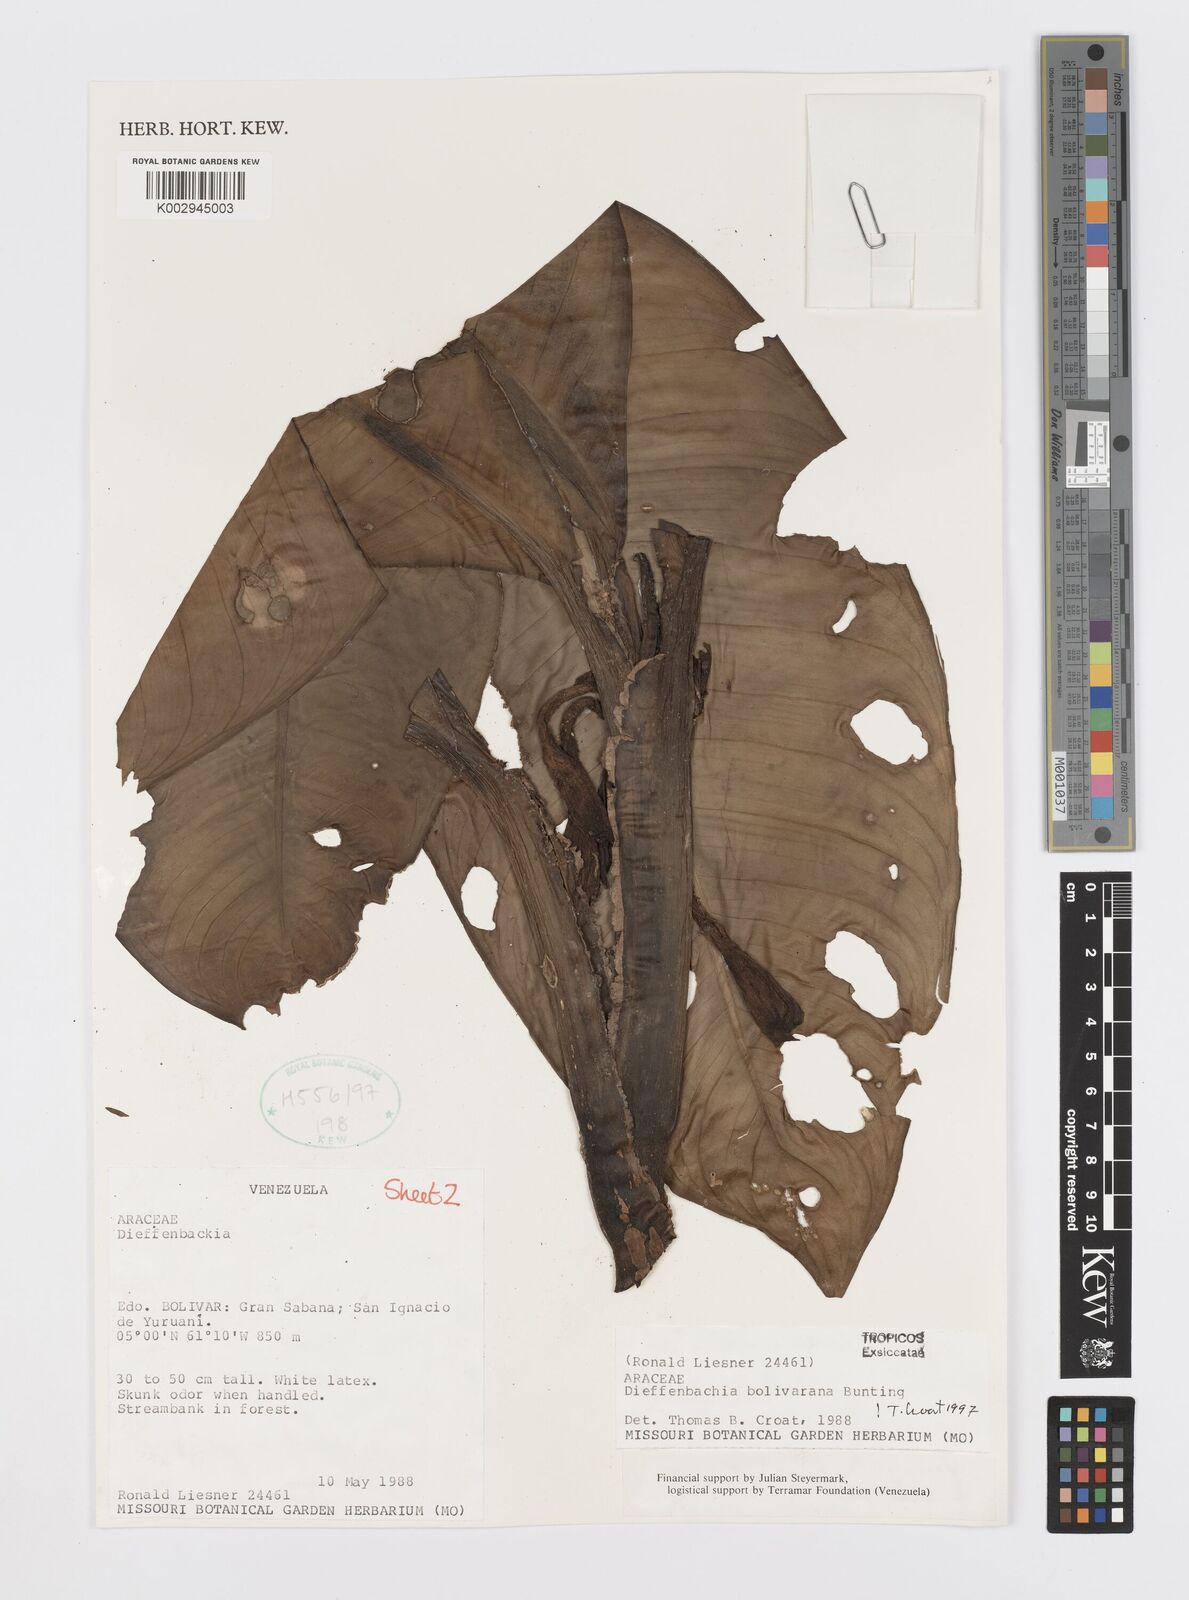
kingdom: Plantae
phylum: Tracheophyta
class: Liliopsida
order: Alismatales
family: Araceae
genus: Dieffenbachia
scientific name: Dieffenbachia duidae
